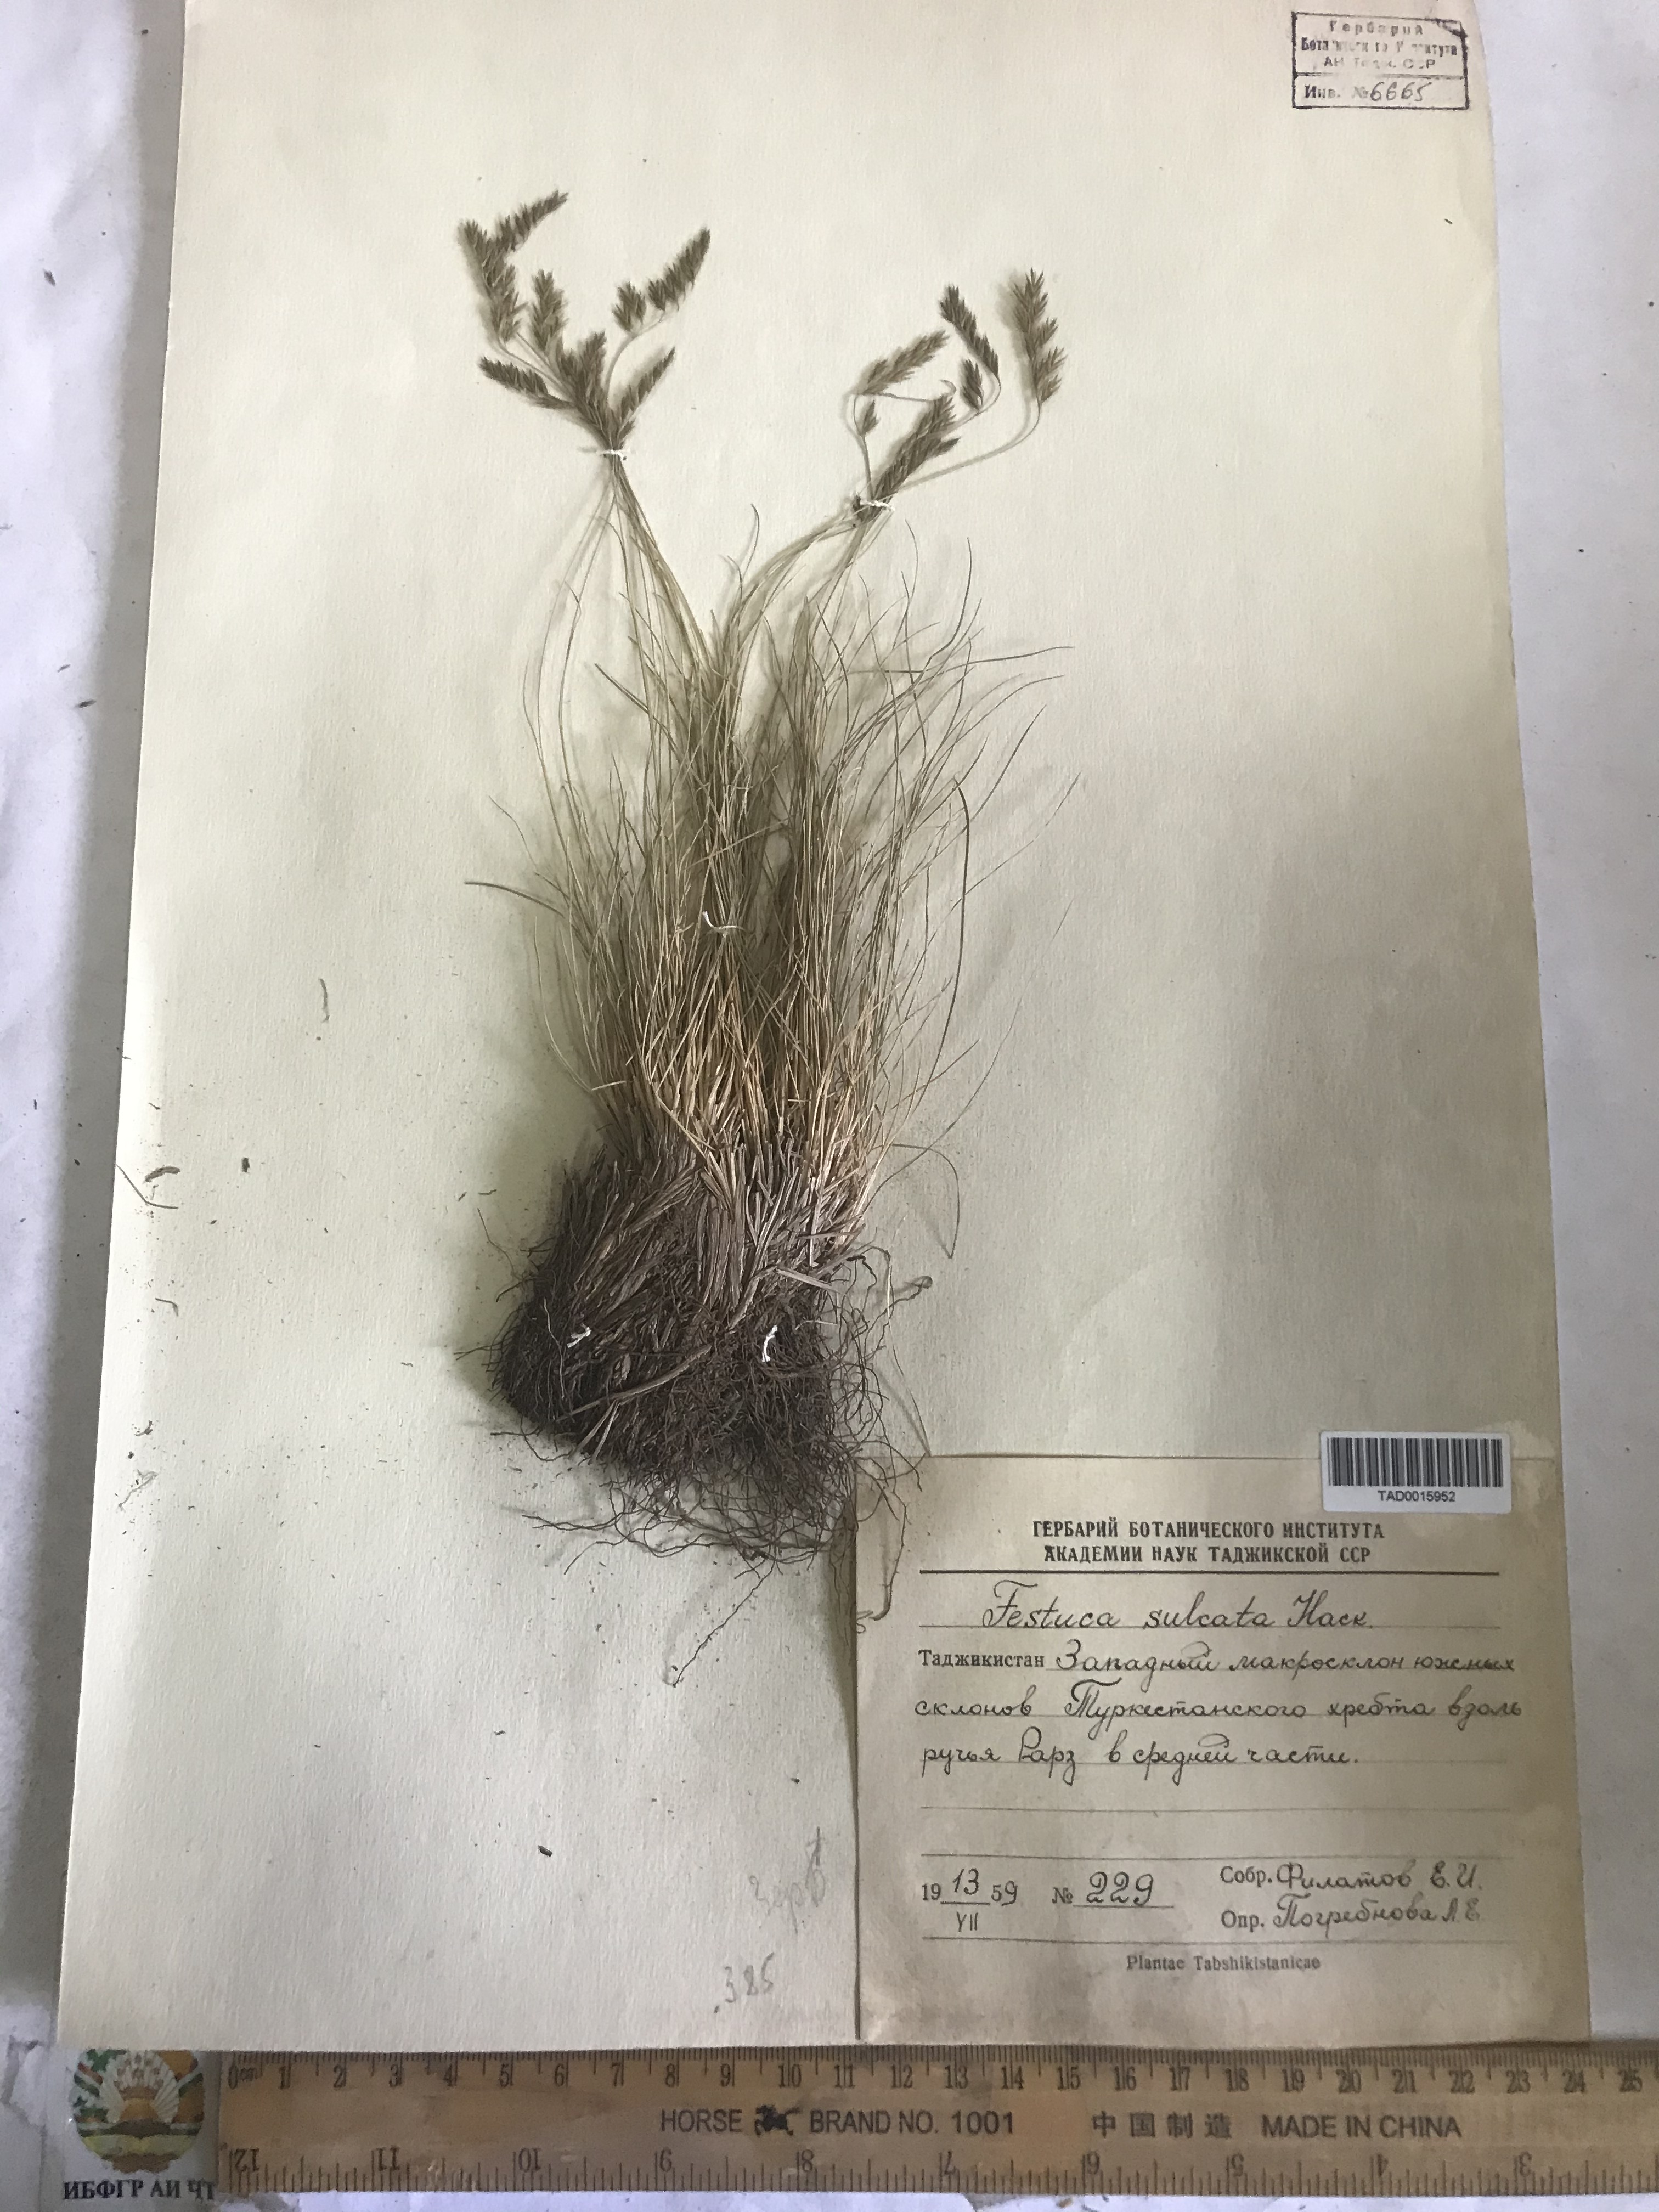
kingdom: Plantae
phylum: Tracheophyta
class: Liliopsida
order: Poales
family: Poaceae
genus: Festuca
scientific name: Festuca sulcata
